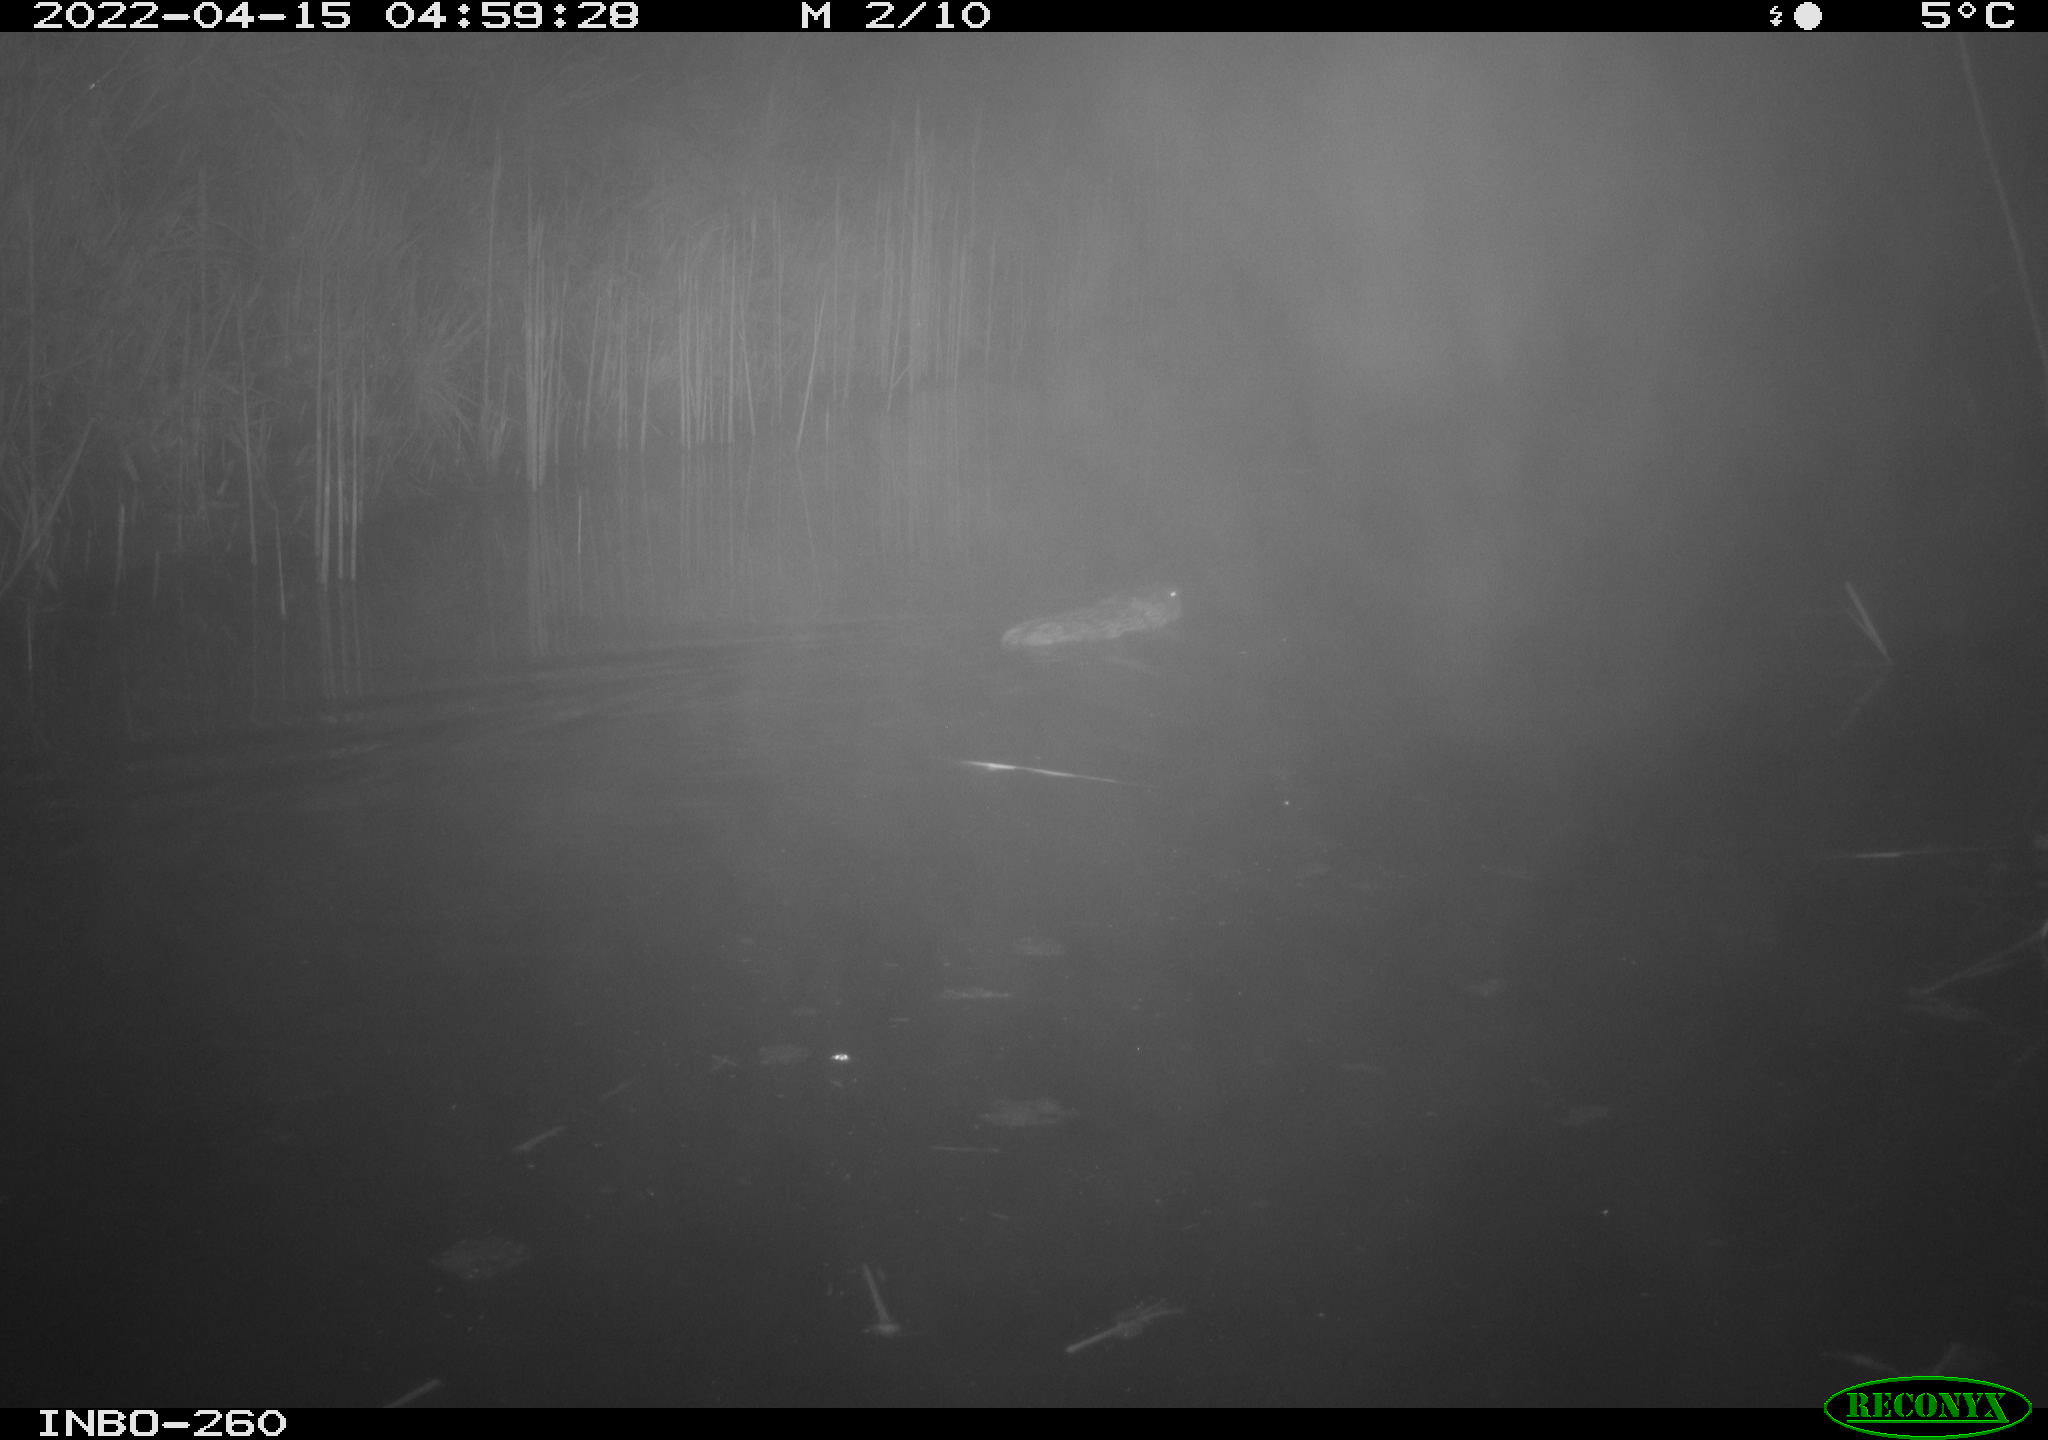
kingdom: Animalia
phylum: Chordata
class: Mammalia
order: Rodentia
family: Cricetidae
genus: Ondatra
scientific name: Ondatra zibethicus
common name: Muskrat
